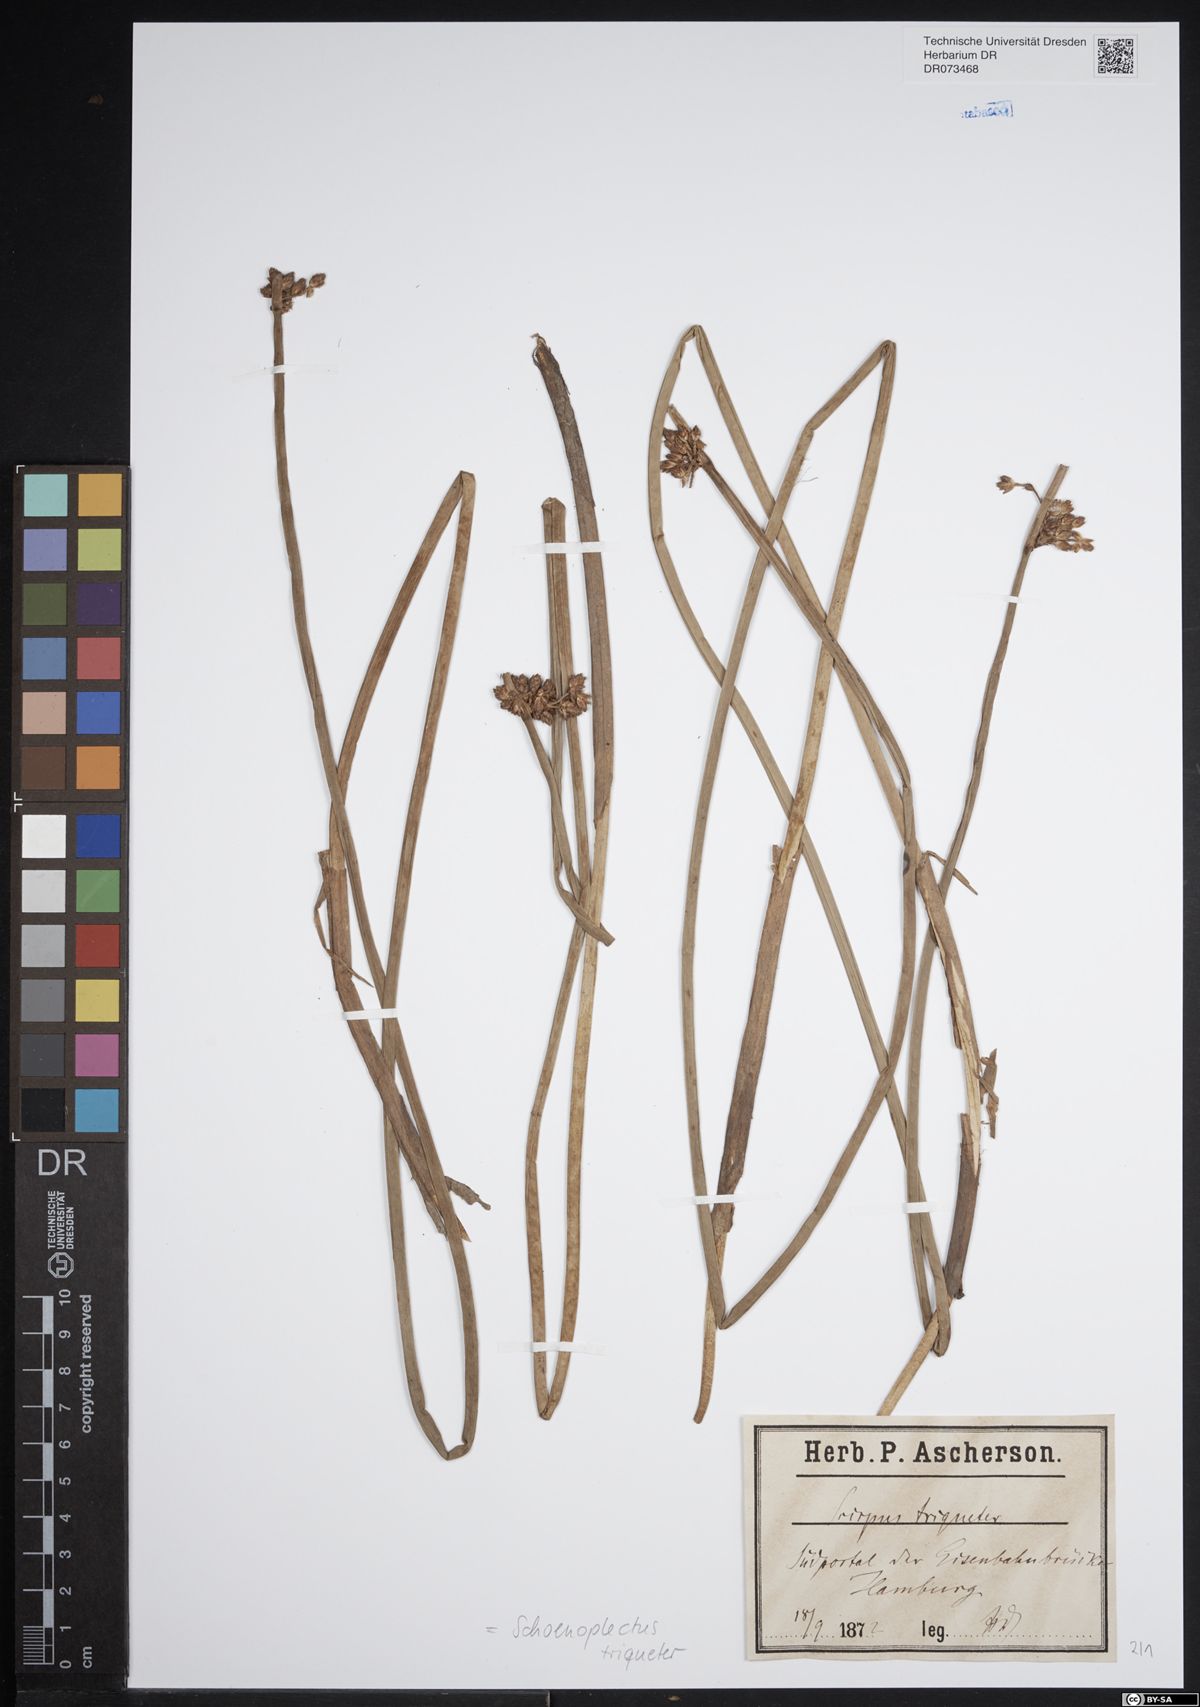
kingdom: Plantae
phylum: Tracheophyta
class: Liliopsida
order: Poales
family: Cyperaceae
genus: Schoenoplectus
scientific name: Schoenoplectus triqueter
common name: Triangular club-rush
